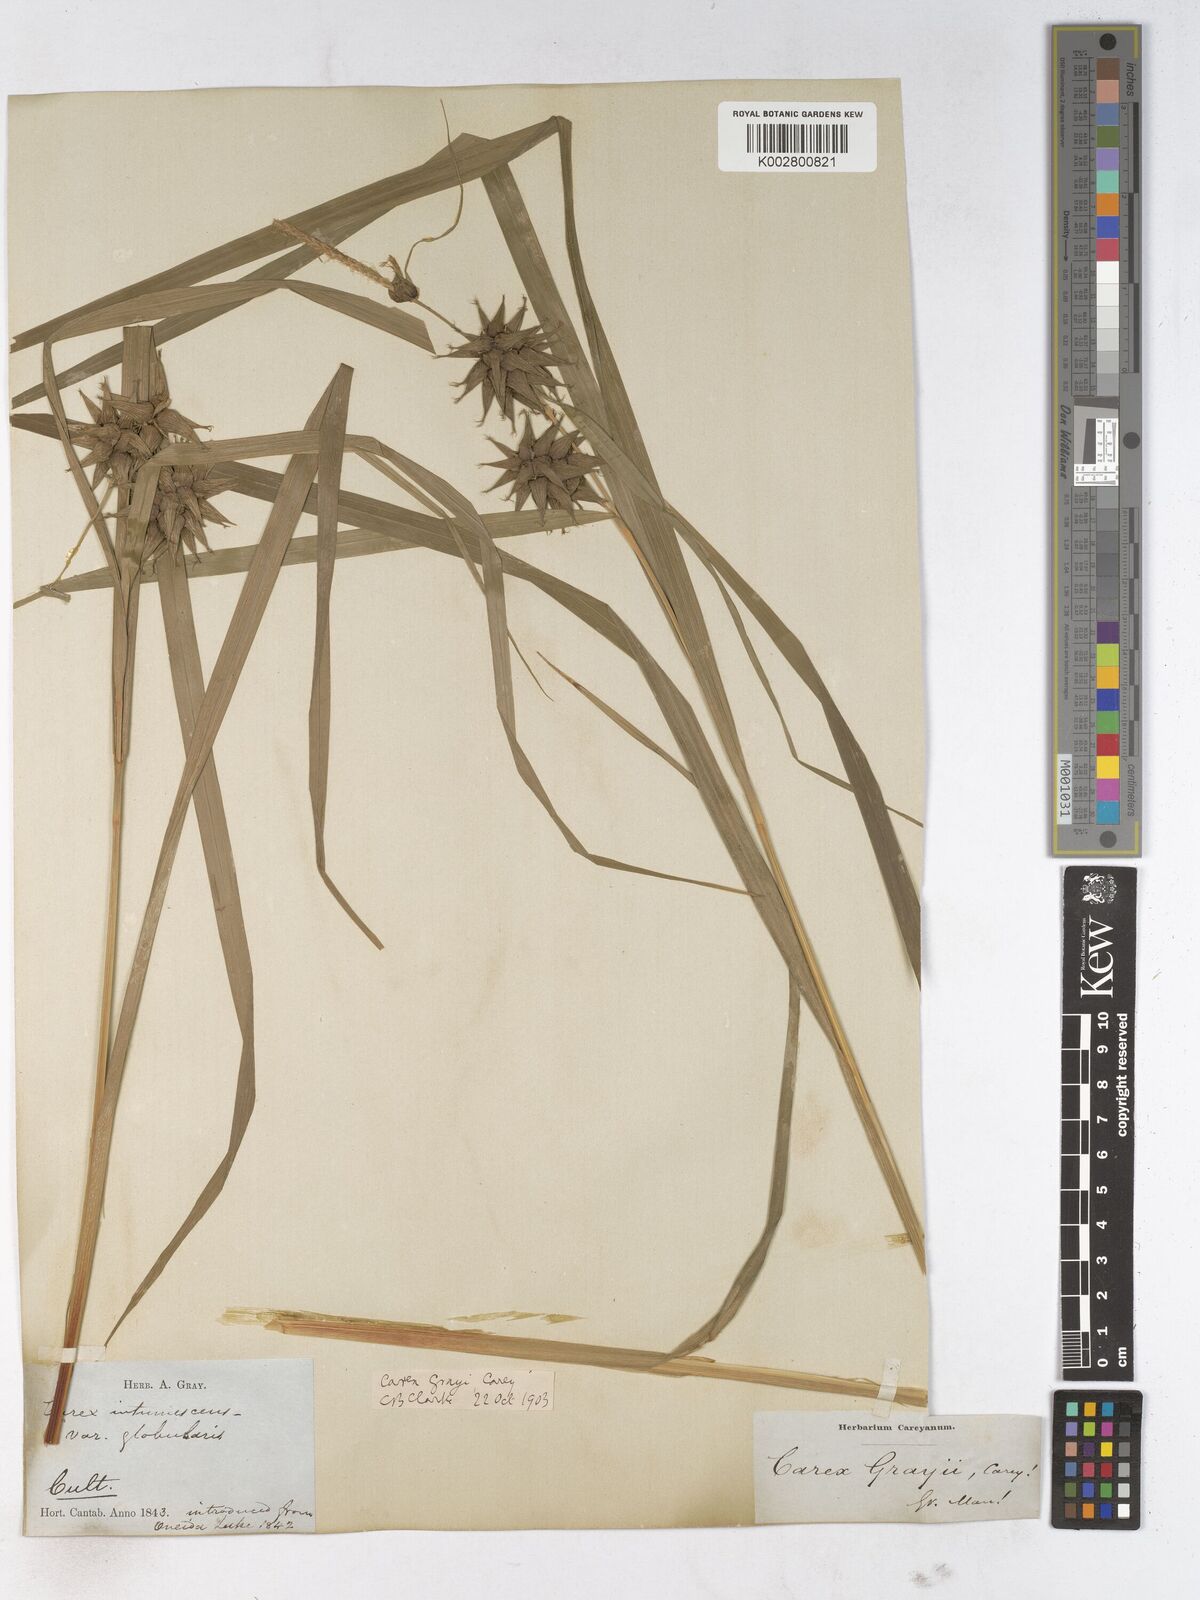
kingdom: Plantae
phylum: Tracheophyta
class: Liliopsida
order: Poales
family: Cyperaceae
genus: Carex
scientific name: Carex grayi
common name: Asa gray's sedge
